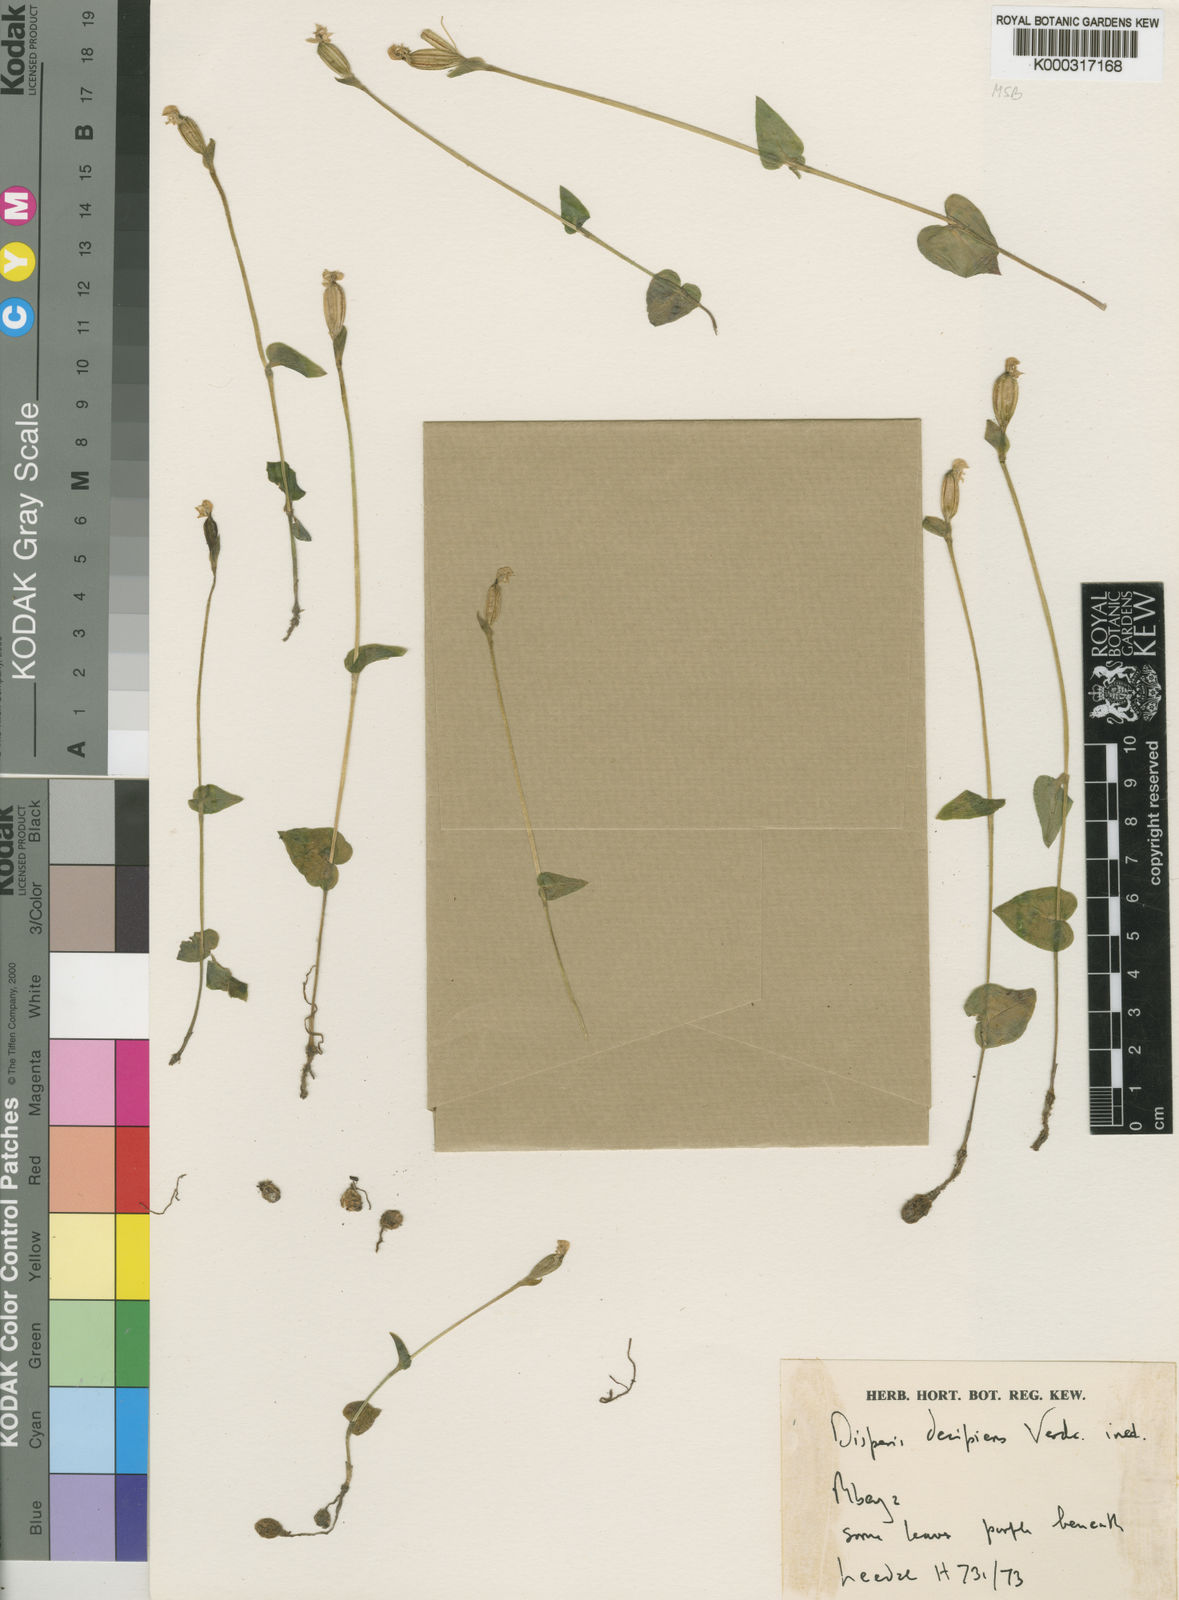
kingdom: Plantae
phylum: Tracheophyta
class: Liliopsida
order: Asparagales
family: Orchidaceae
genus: Disperis
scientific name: Disperis decipiens
